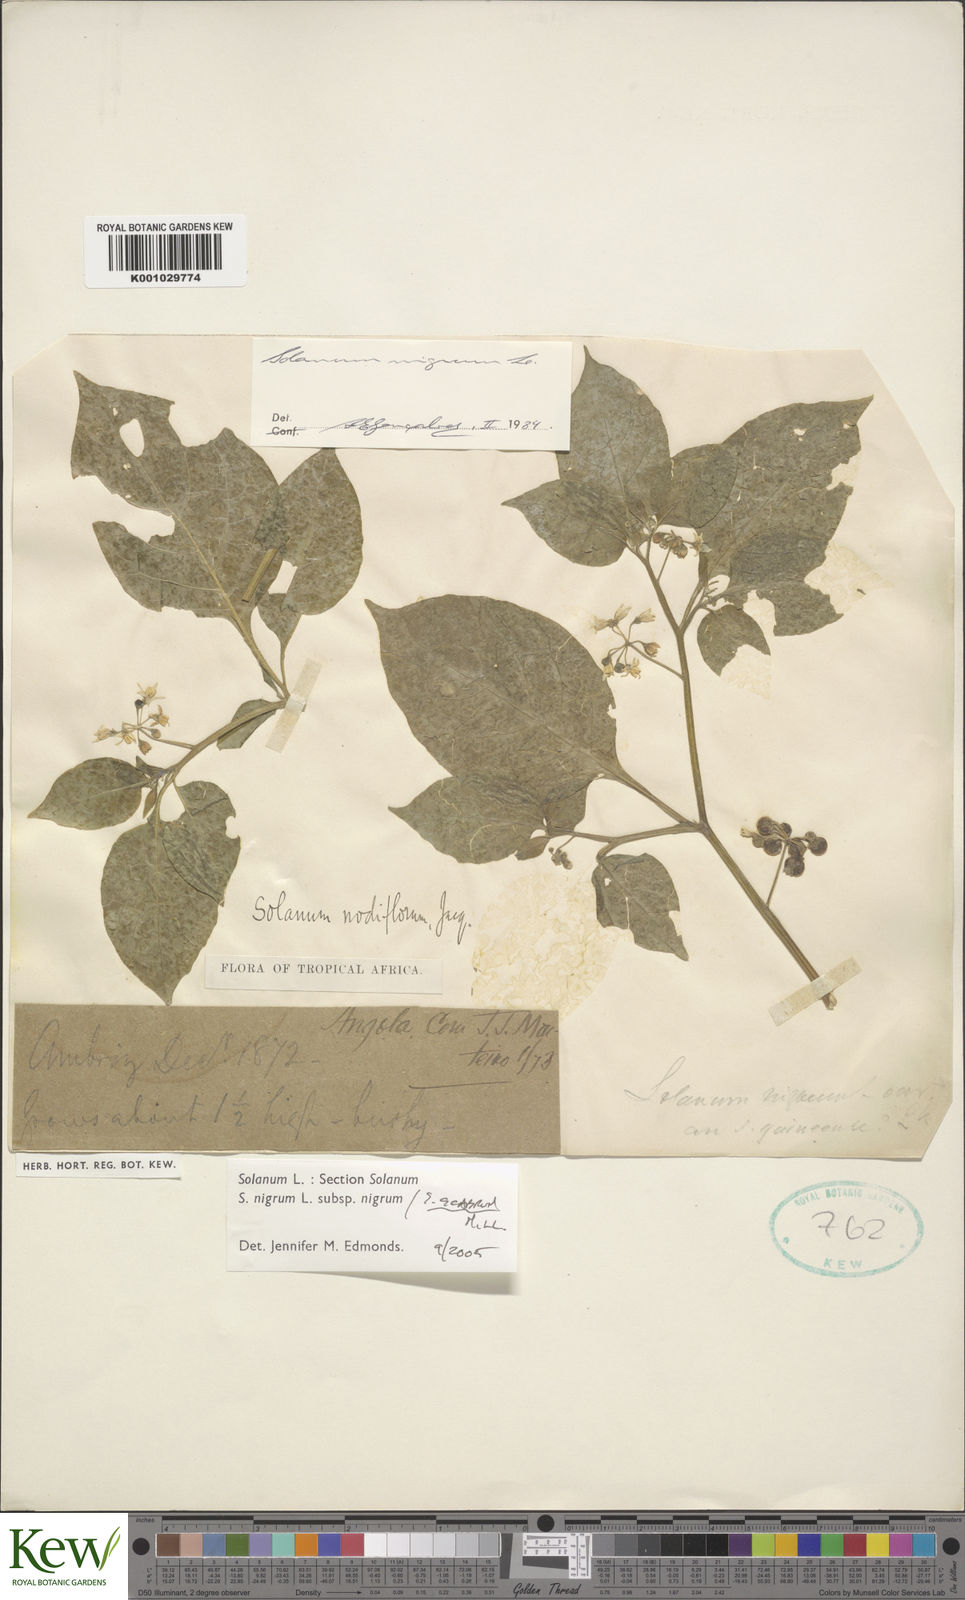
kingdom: Plantae
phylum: Tracheophyta
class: Magnoliopsida
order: Solanales
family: Solanaceae
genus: Solanum
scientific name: Solanum villosum
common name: Red nightshade
